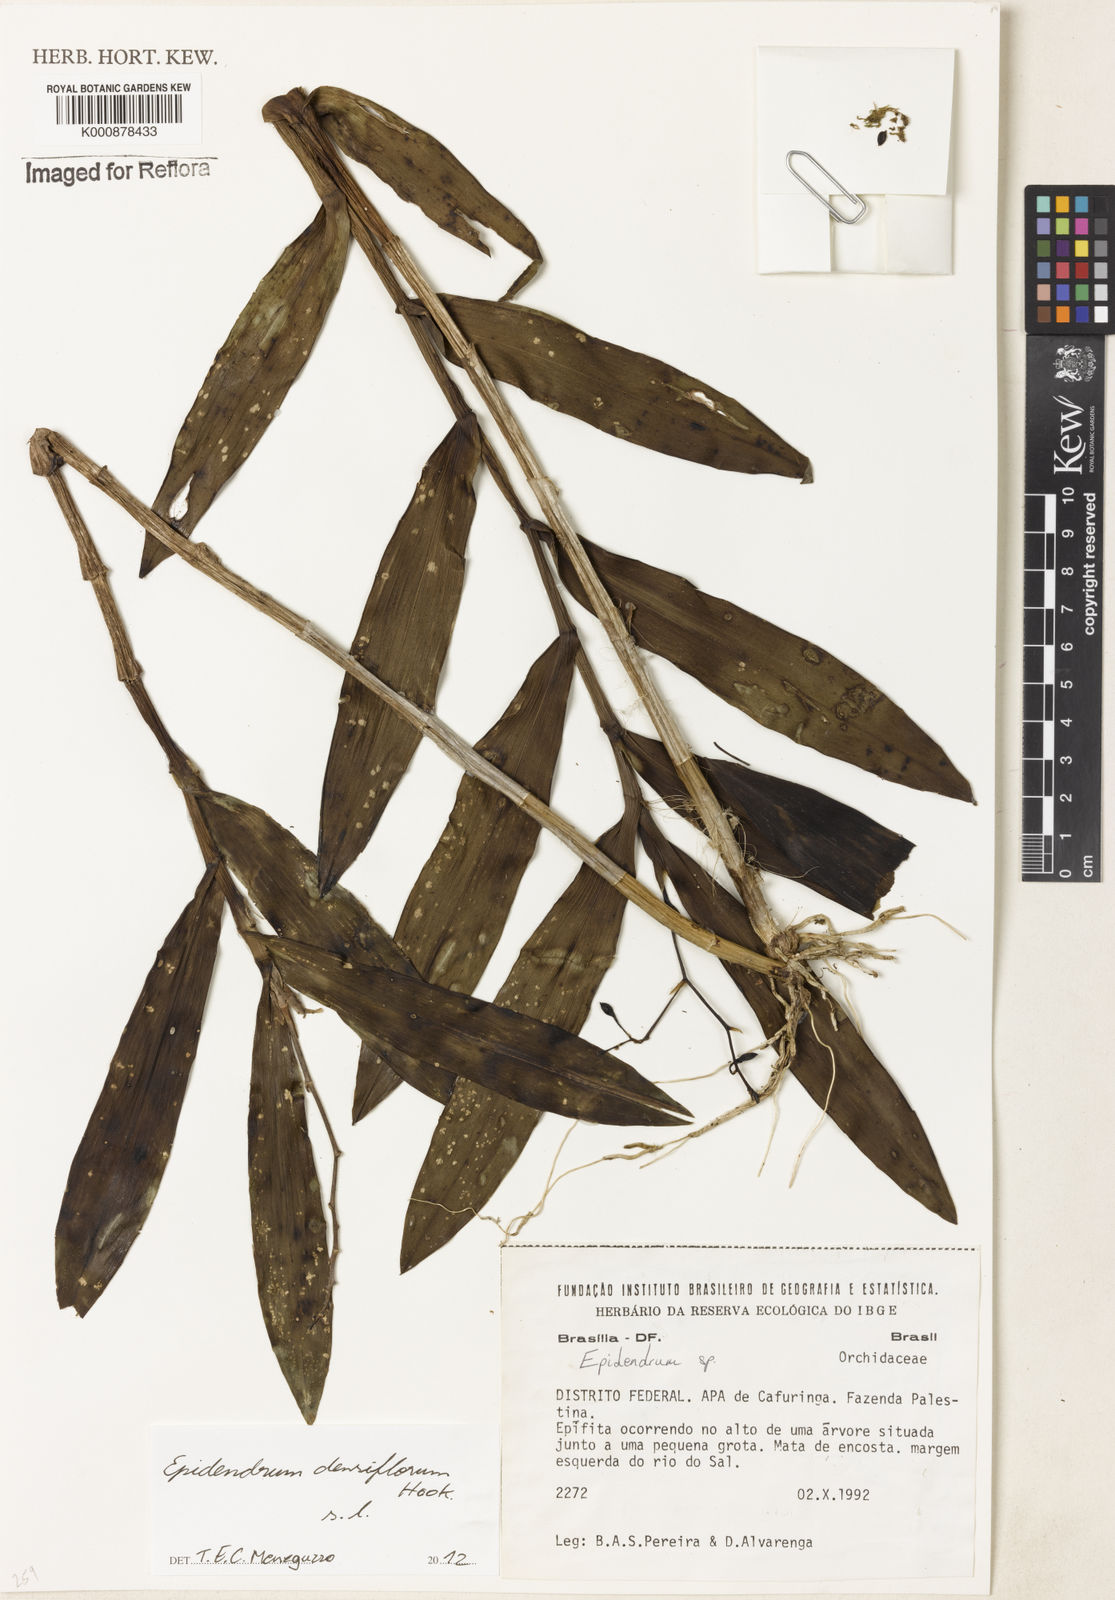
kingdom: Plantae
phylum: Tracheophyta
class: Liliopsida
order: Asparagales
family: Orchidaceae
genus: Epidendrum
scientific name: Epidendrum densiflorum
